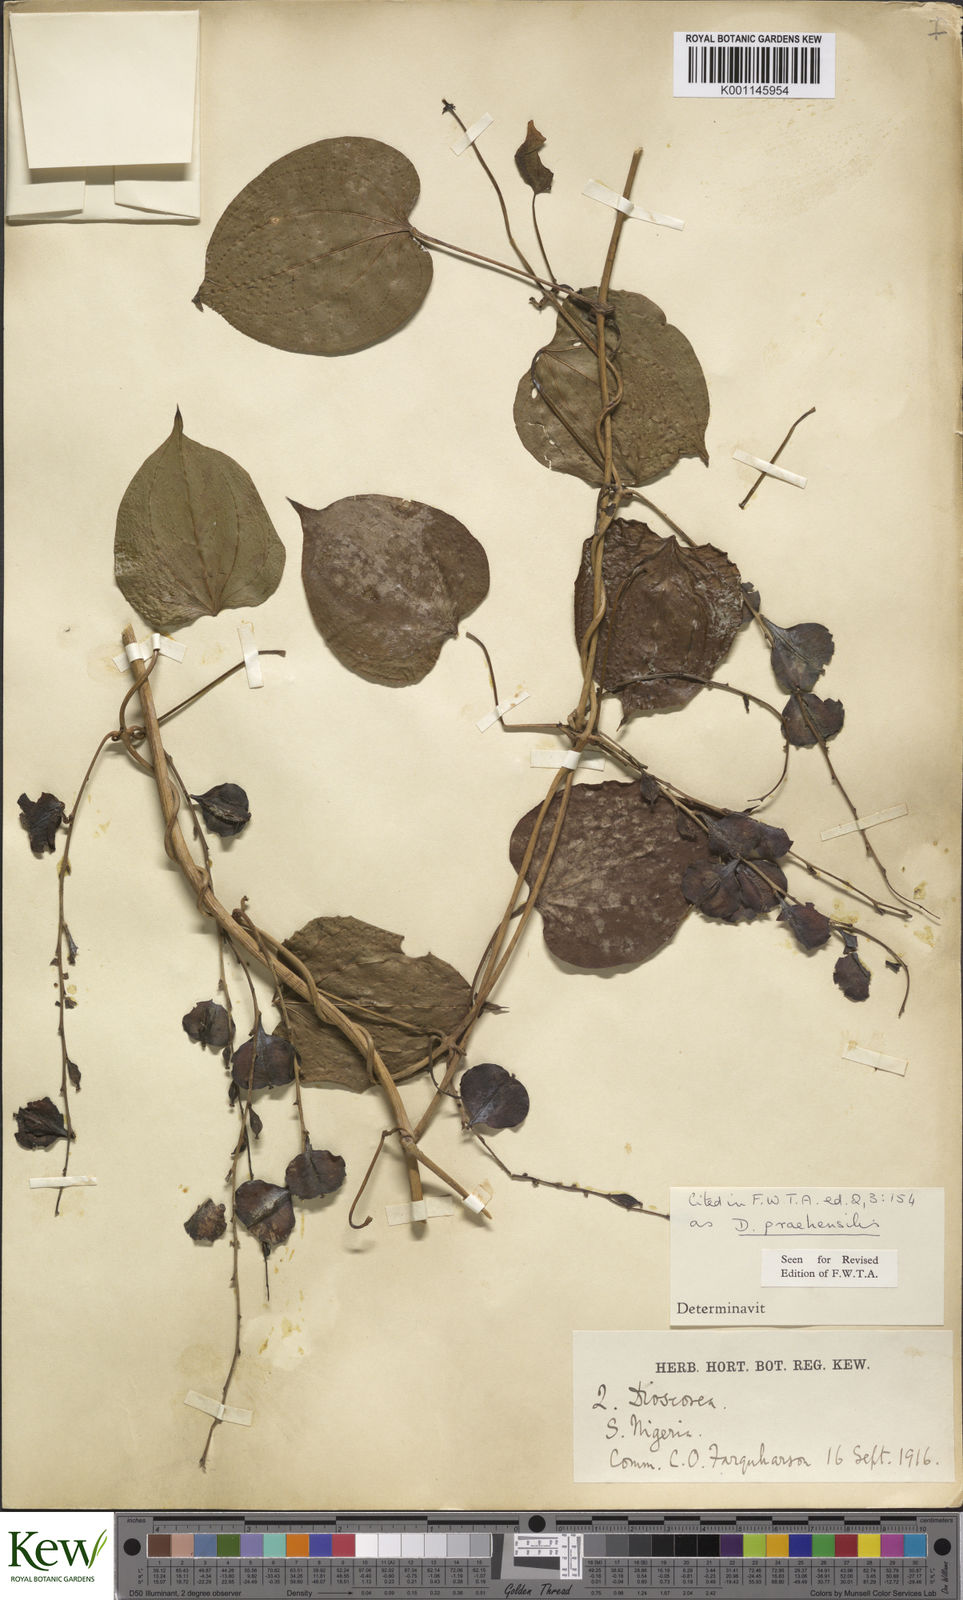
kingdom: Plantae
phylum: Tracheophyta
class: Liliopsida
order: Dioscoreales
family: Dioscoreaceae
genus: Dioscorea
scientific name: Dioscorea praehensilis
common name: Bush yam
